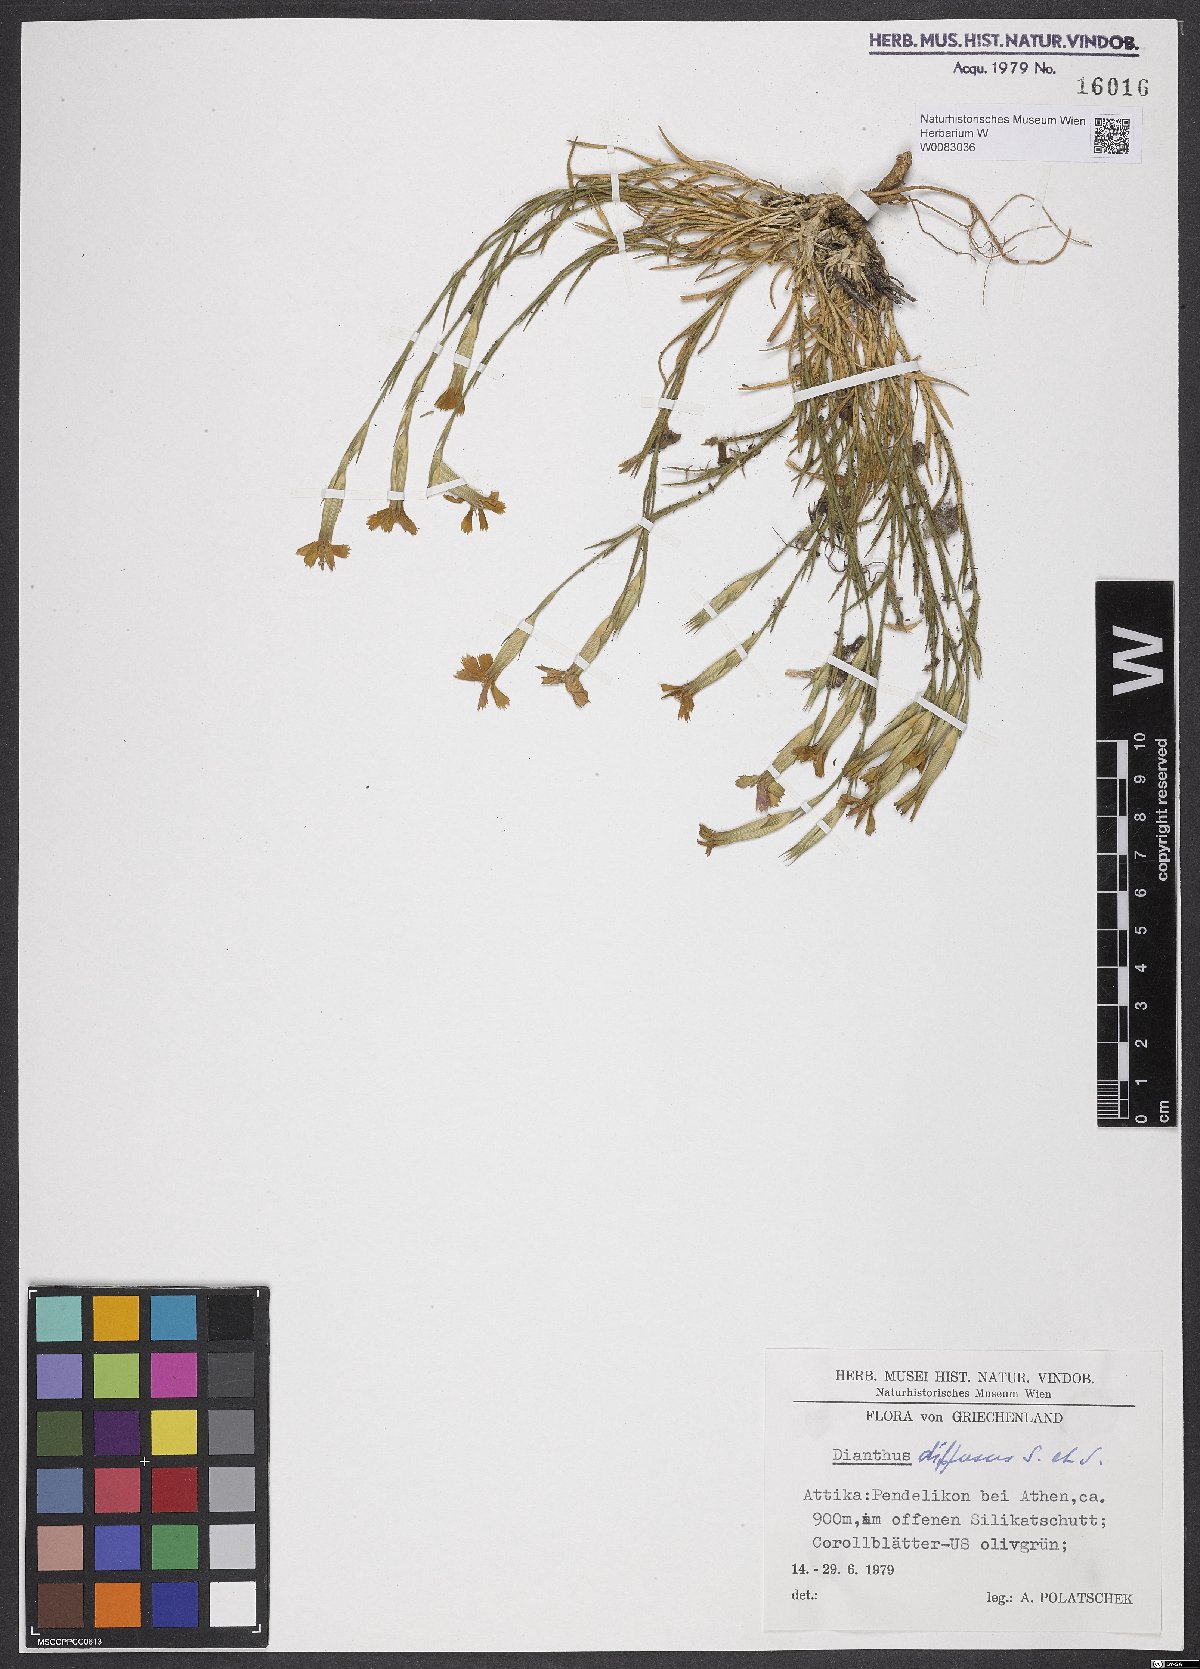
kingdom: Plantae
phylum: Tracheophyta
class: Magnoliopsida
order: Caryophyllales
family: Caryophyllaceae
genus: Dianthus
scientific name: Dianthus diffusus
